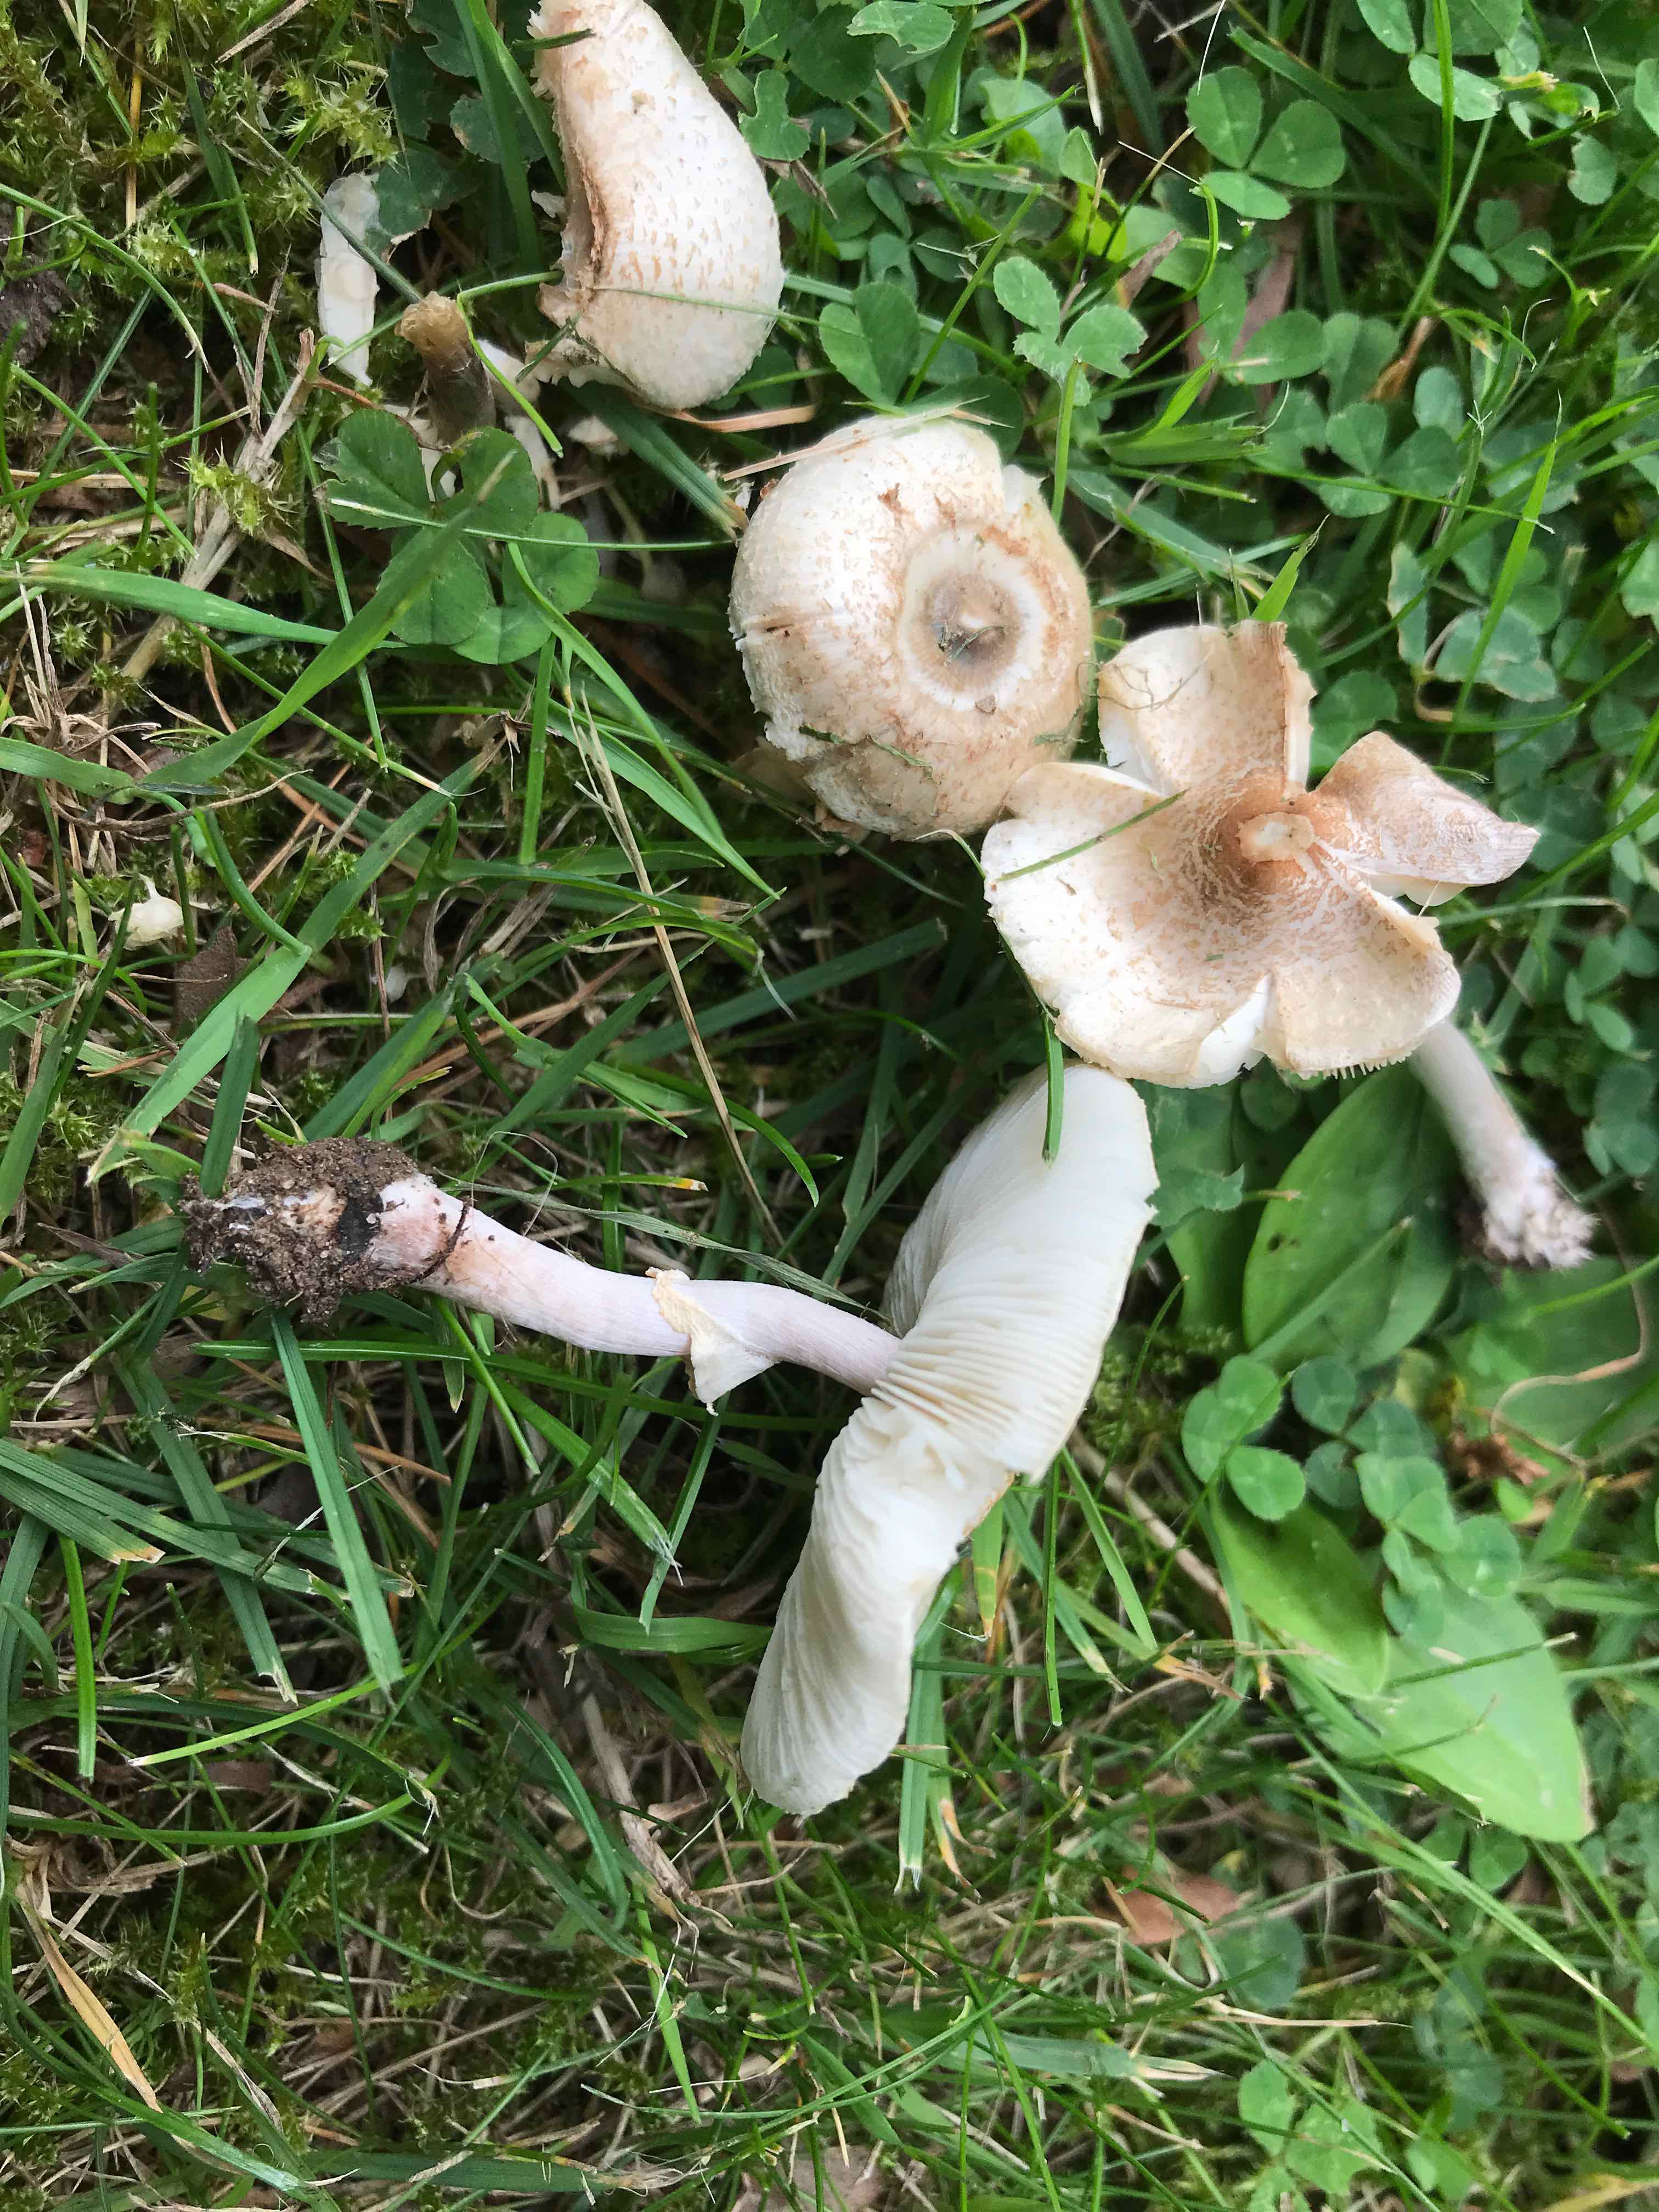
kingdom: Fungi
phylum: Basidiomycota
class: Agaricomycetes
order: Agaricales
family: Agaricaceae
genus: Lepiota
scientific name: Lepiota cristata
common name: stinkende parasolhat
